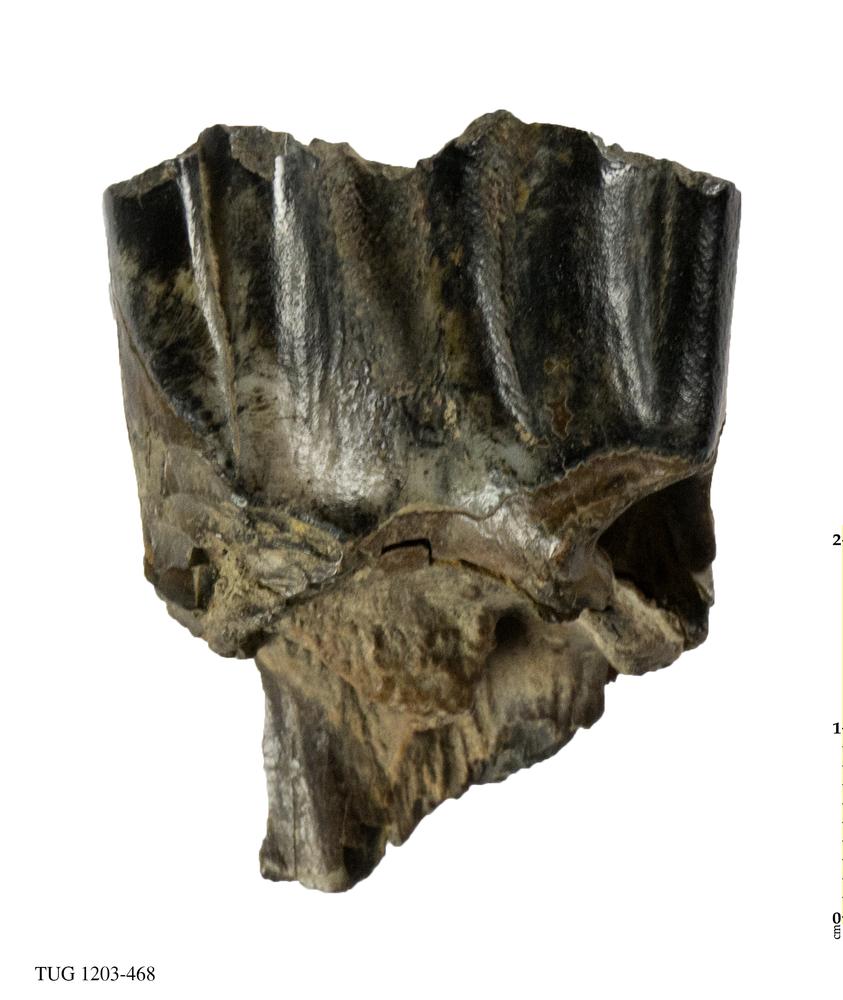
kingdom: Animalia
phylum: Chordata
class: Mammalia
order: Artiodactyla
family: Bovidae
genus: Bos
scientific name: Bos priscus
